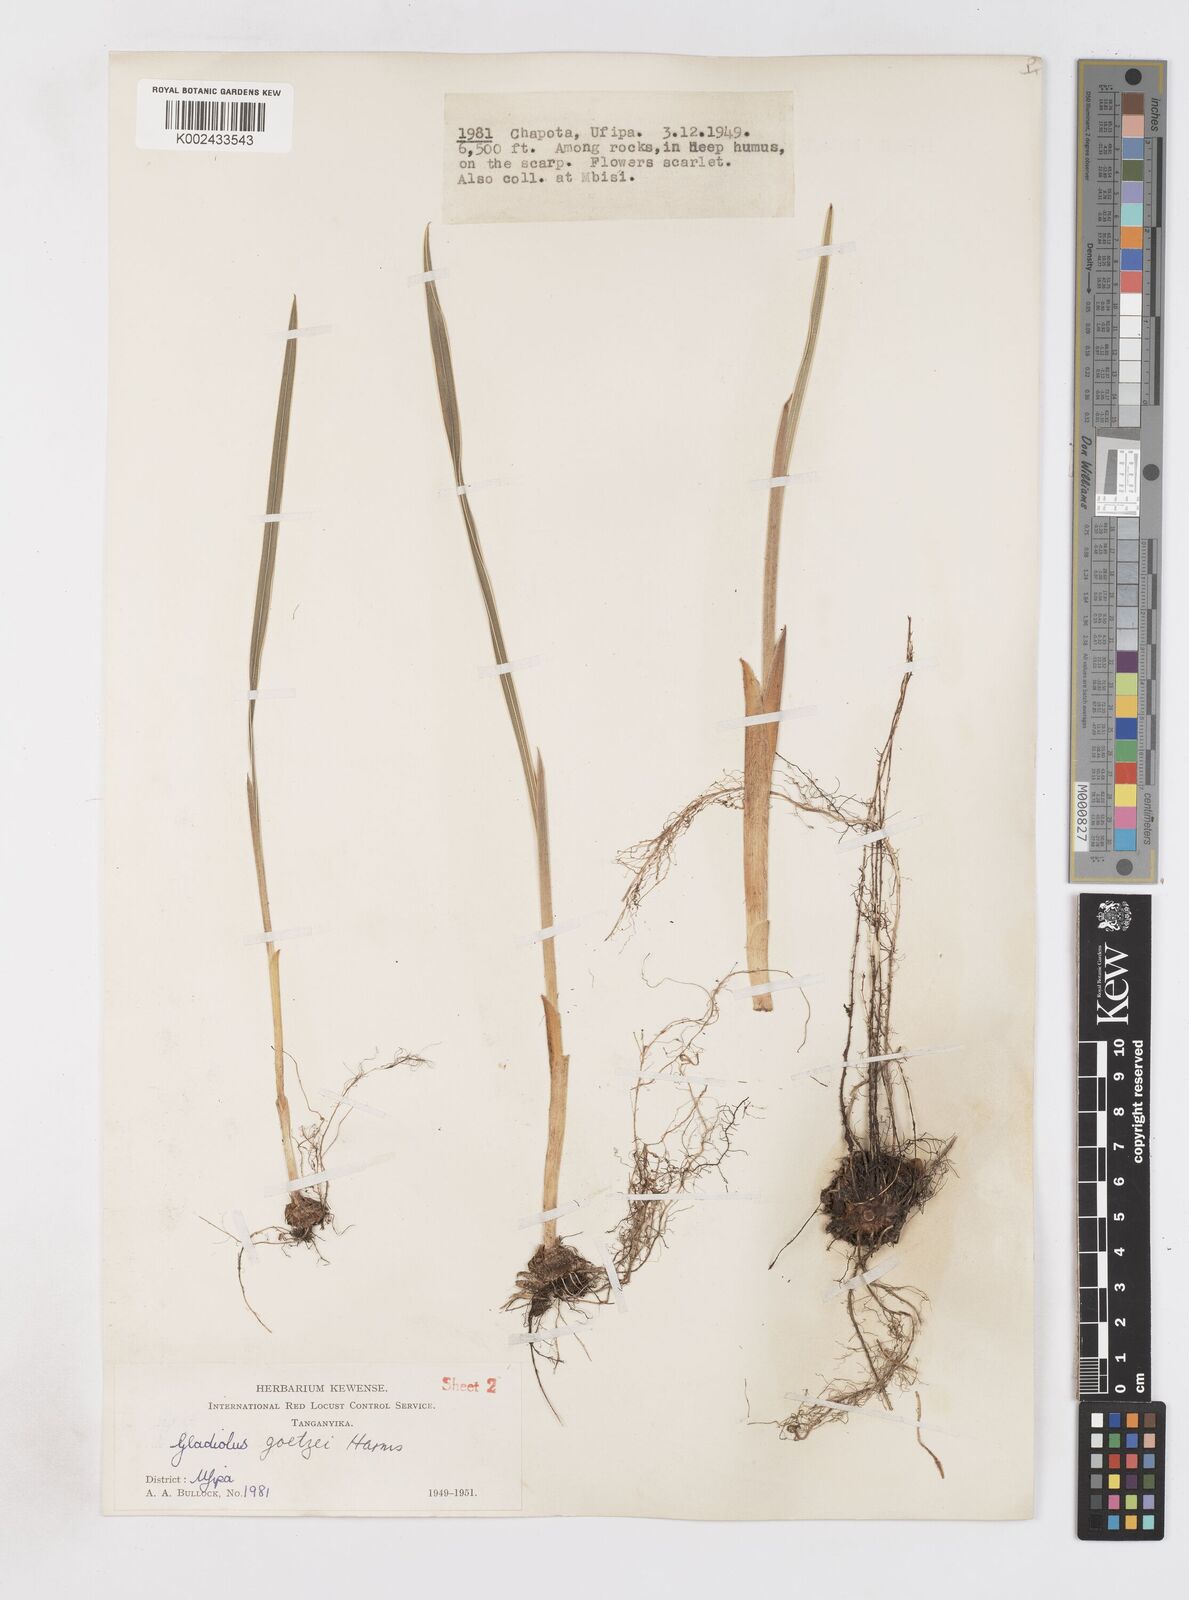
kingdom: Plantae
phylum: Tracheophyta
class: Liliopsida
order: Asparagales
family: Iridaceae
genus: Gladiolus
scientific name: Gladiolus dalenii
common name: Cornflag
